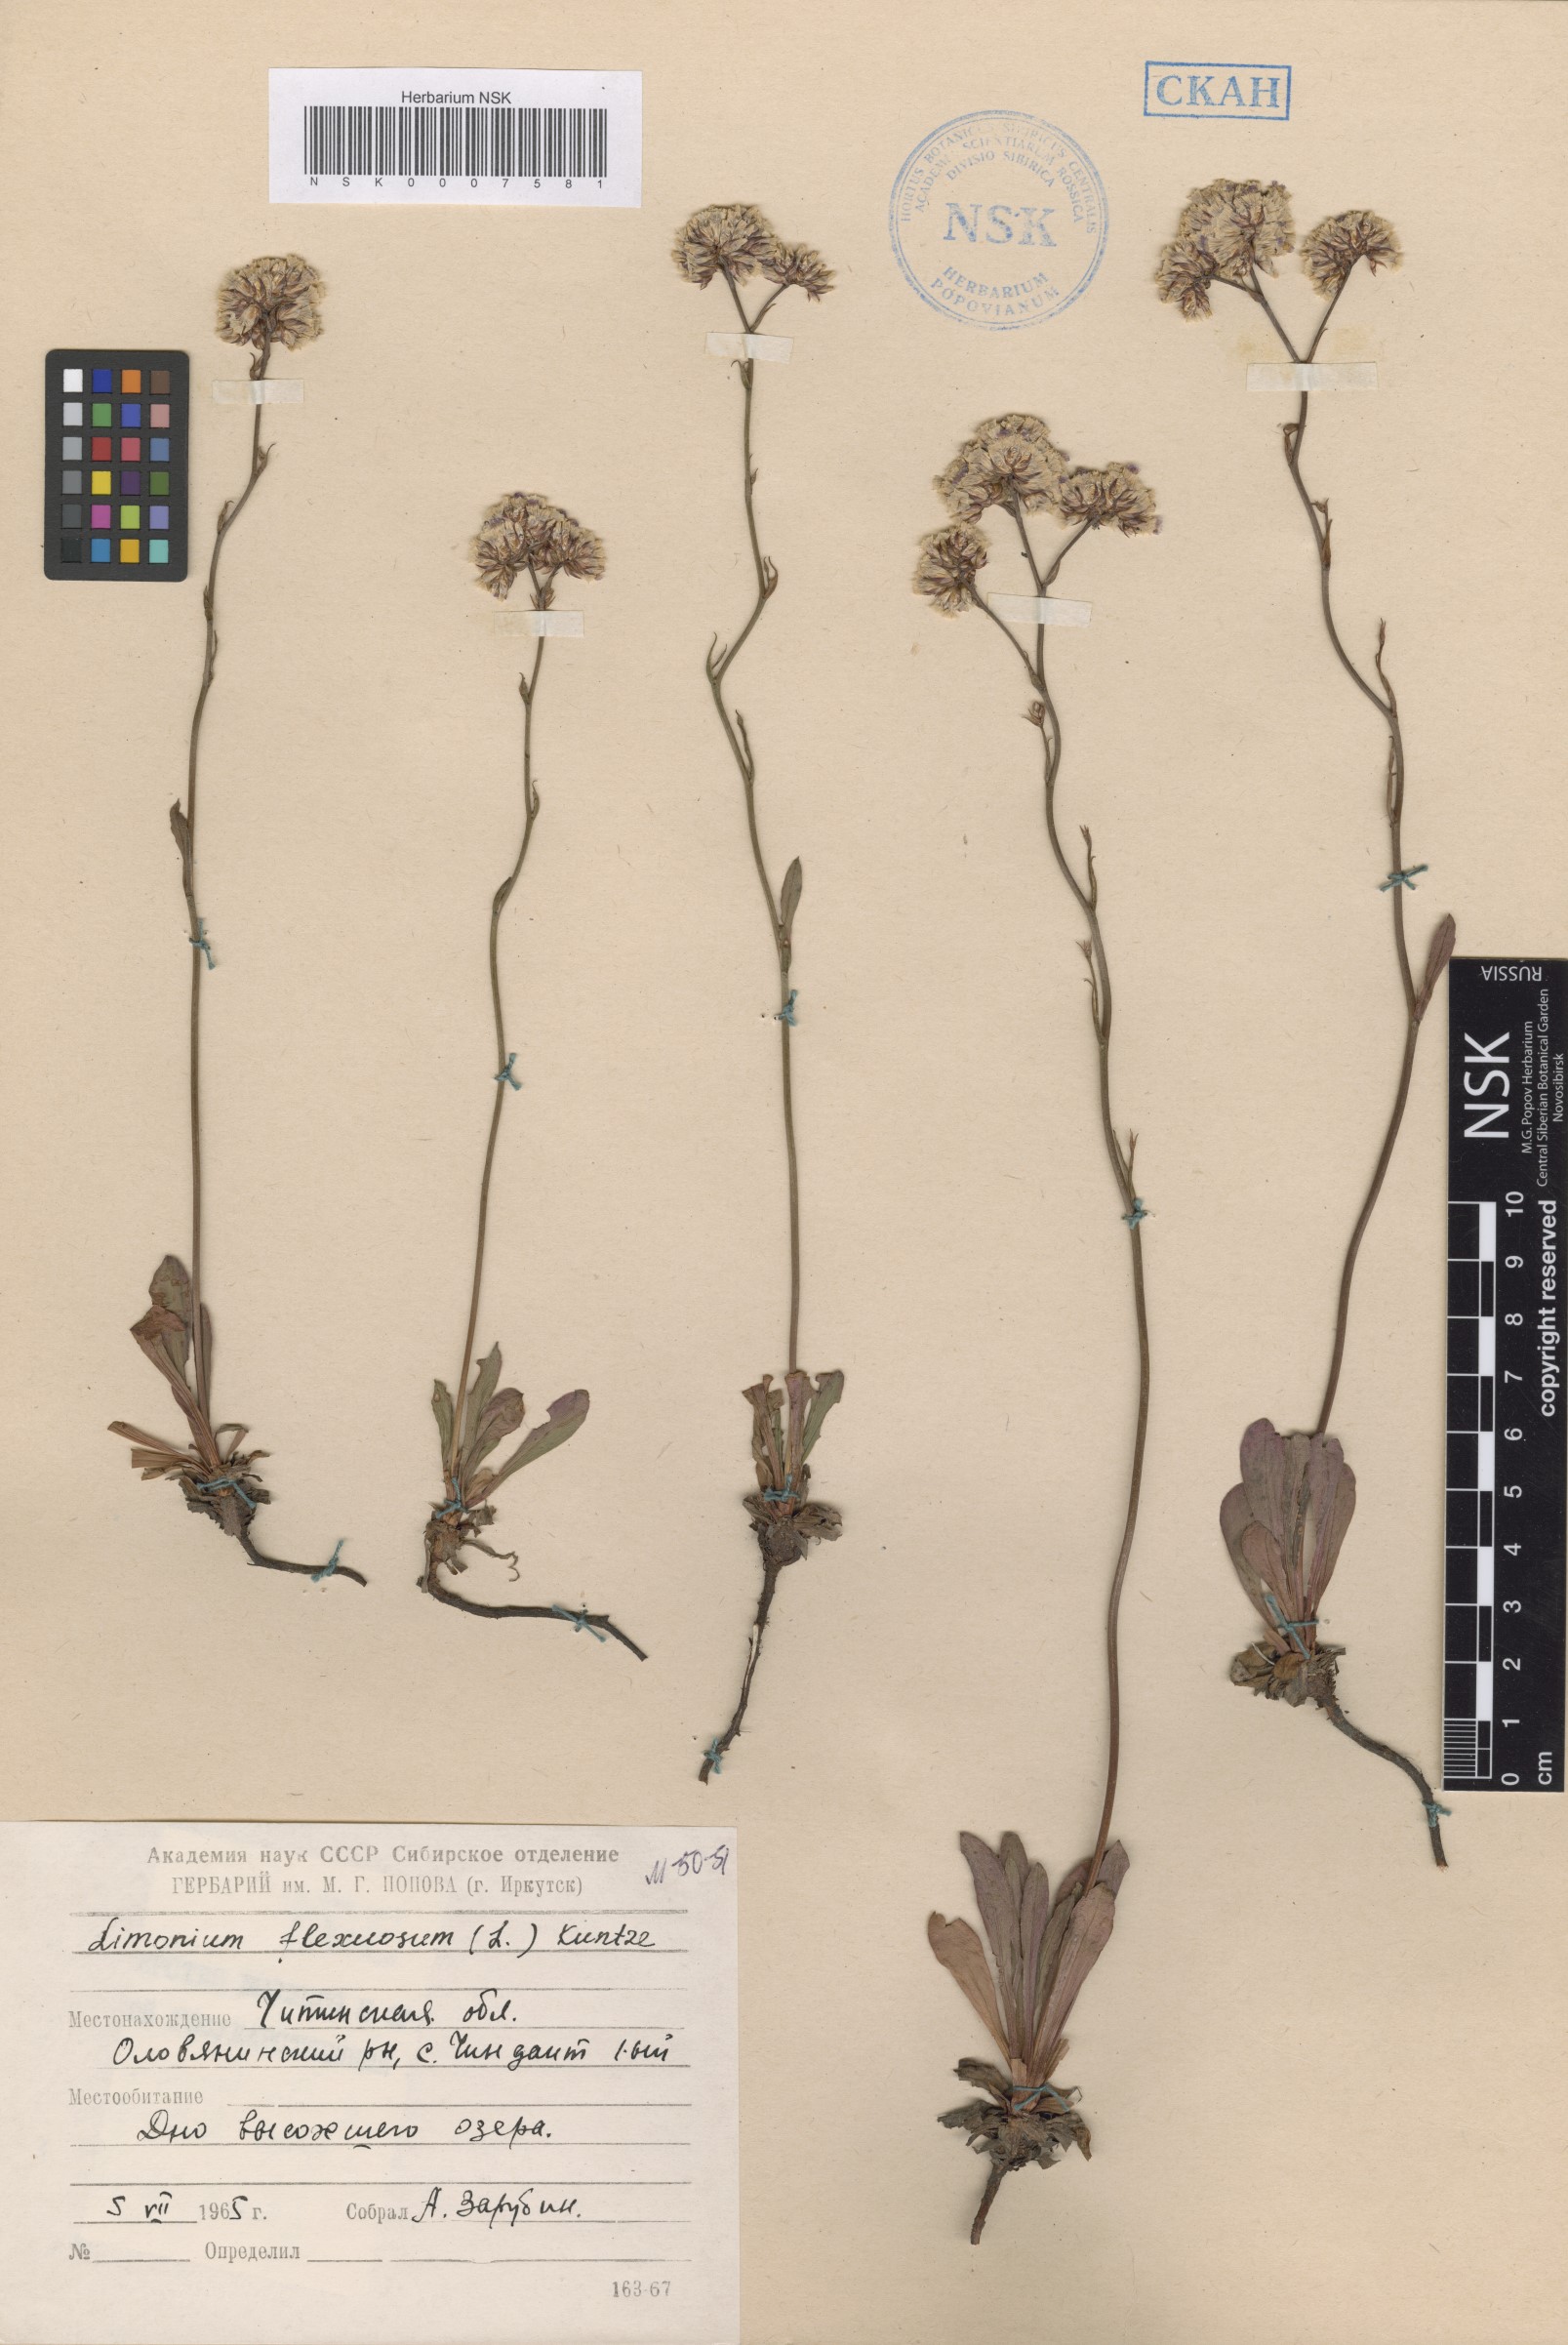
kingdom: Plantae
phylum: Tracheophyta
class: Magnoliopsida
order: Caryophyllales
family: Plumbaginaceae
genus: Limonium
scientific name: Limonium flexuosum
